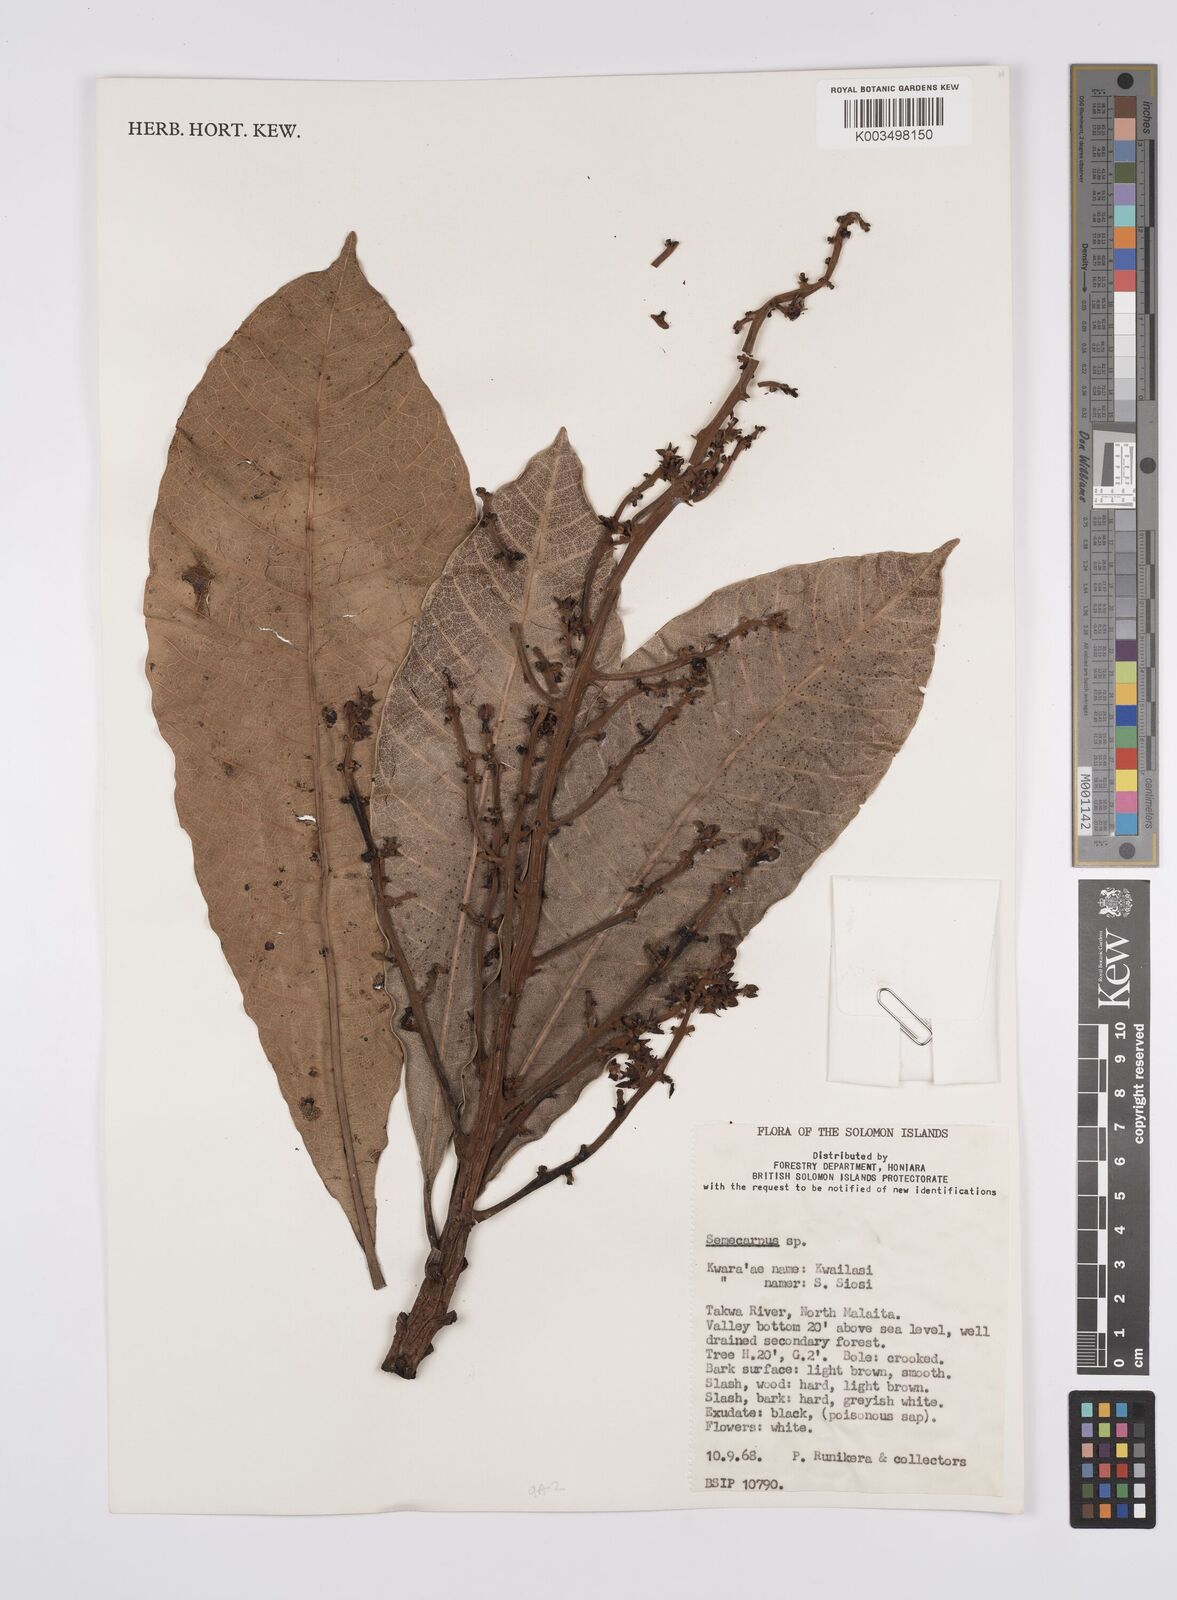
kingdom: Plantae
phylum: Tracheophyta
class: Magnoliopsida
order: Sapindales
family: Anacardiaceae
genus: Semecarpus
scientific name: Semecarpus
